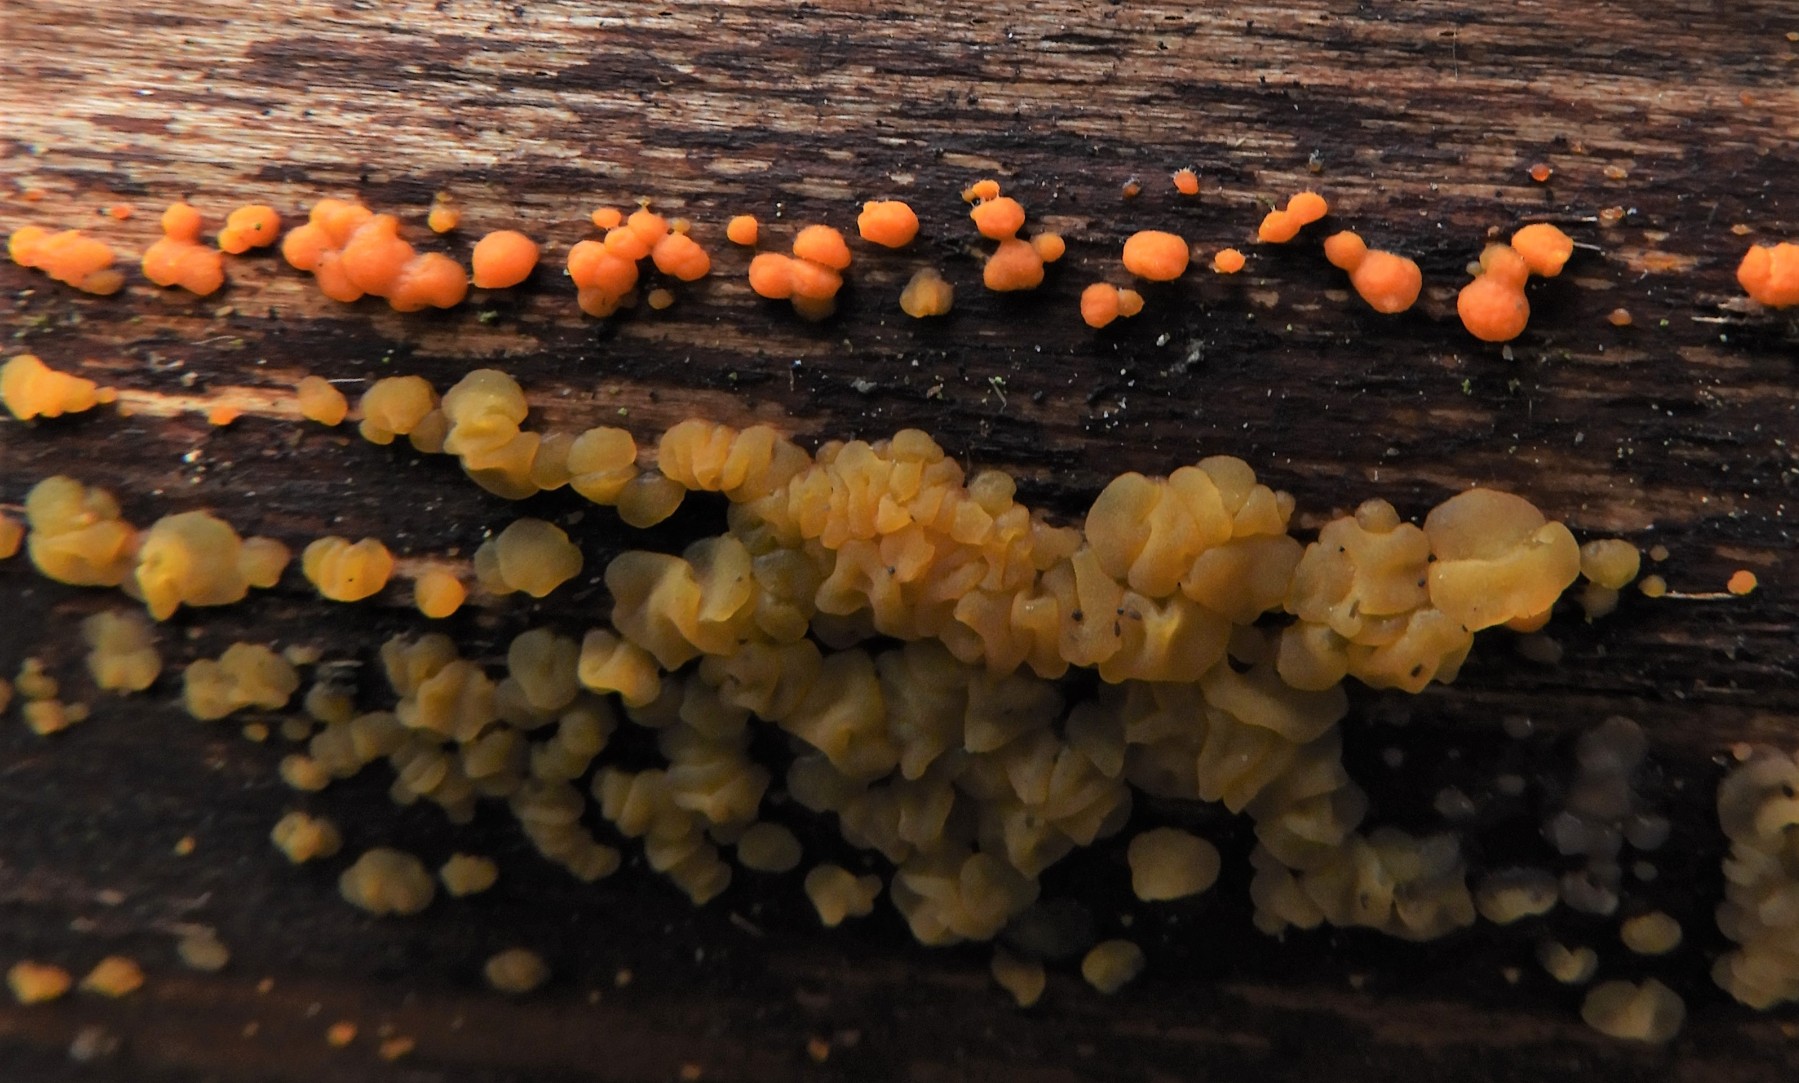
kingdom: Fungi
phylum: Basidiomycota
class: Dacrymycetes
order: Dacrymycetales
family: Dacrymycetaceae
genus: Dacrymyces
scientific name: Dacrymyces stillatus
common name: almindelig tåresvamp
